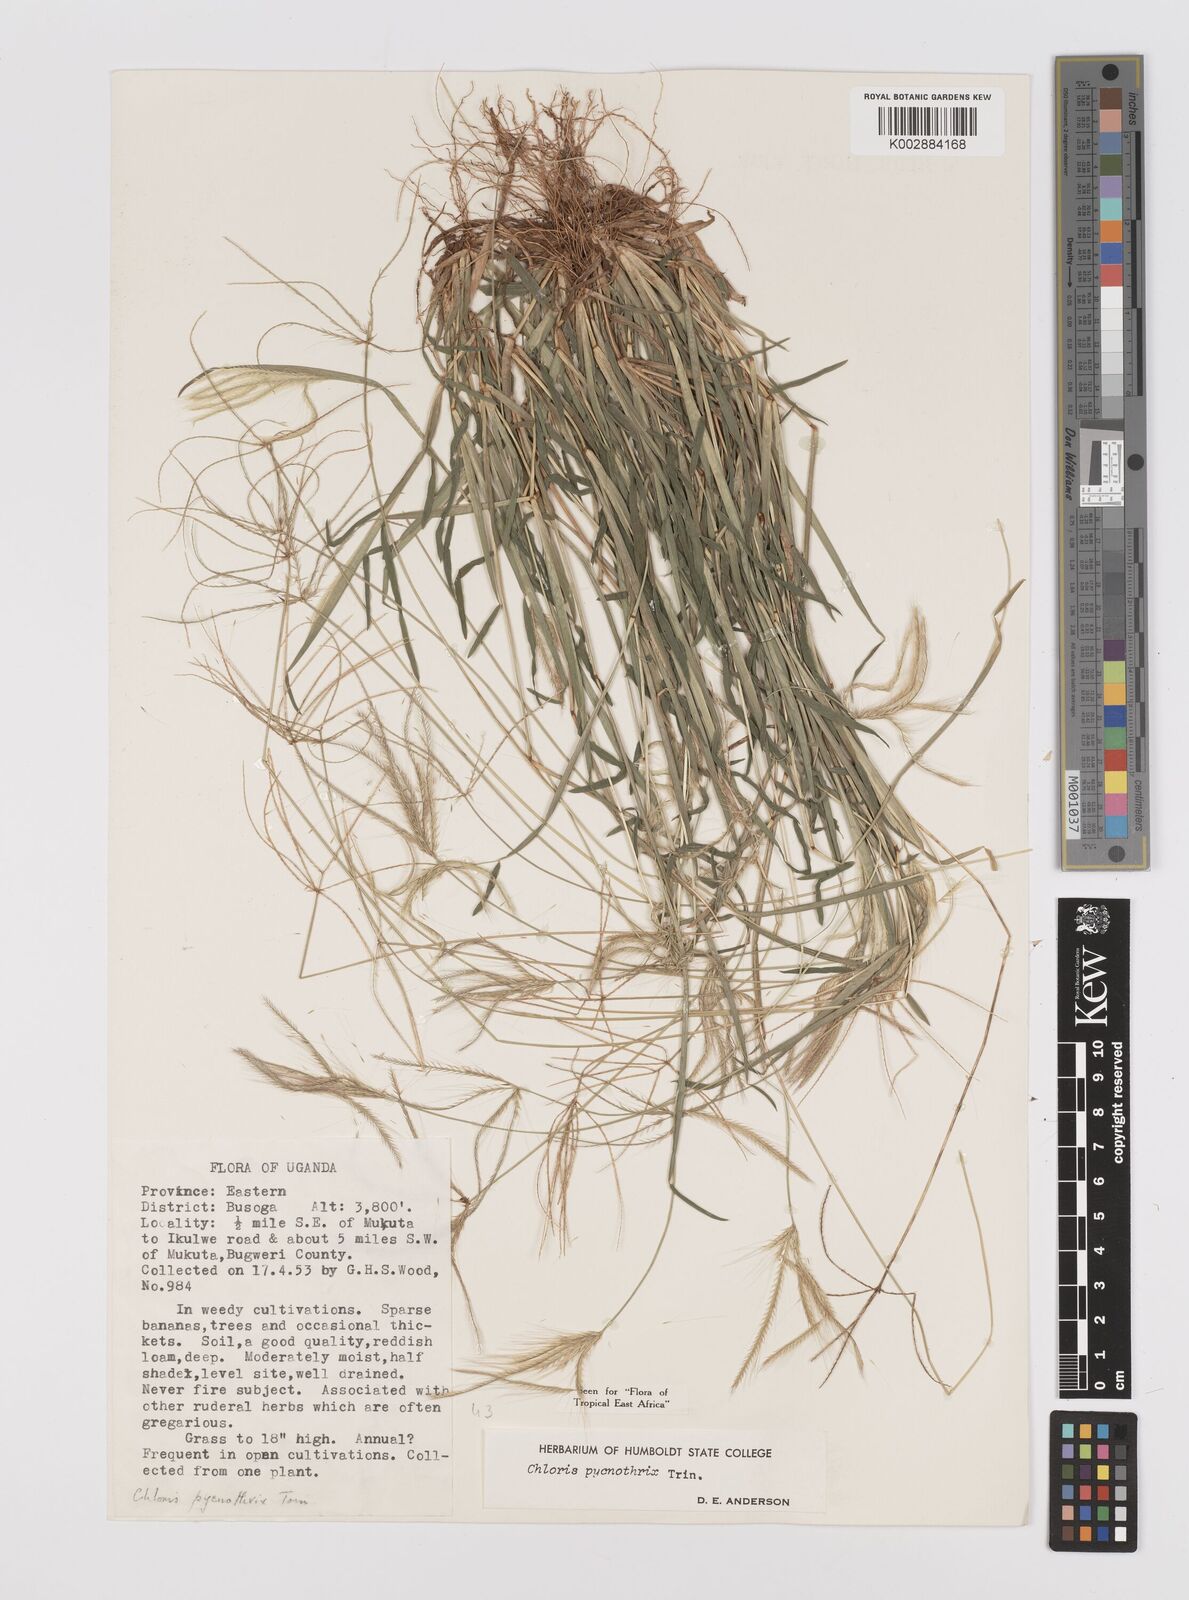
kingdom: Plantae
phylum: Tracheophyta
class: Liliopsida
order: Poales
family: Poaceae
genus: Chloris
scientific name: Chloris pycnothrix
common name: Spiderweb chloris
